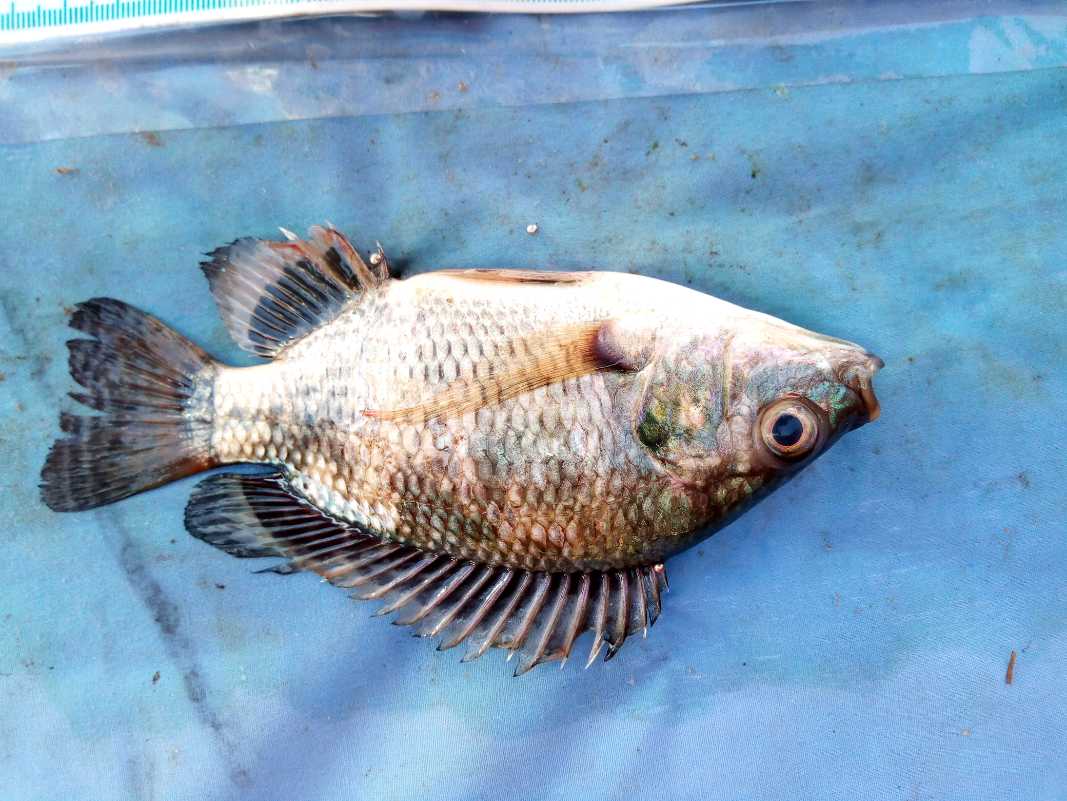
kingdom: Animalia
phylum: Chordata
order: Perciformes
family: Cichlidae
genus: Oreochromis
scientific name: Oreochromis niloticus
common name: Nile tilapia
